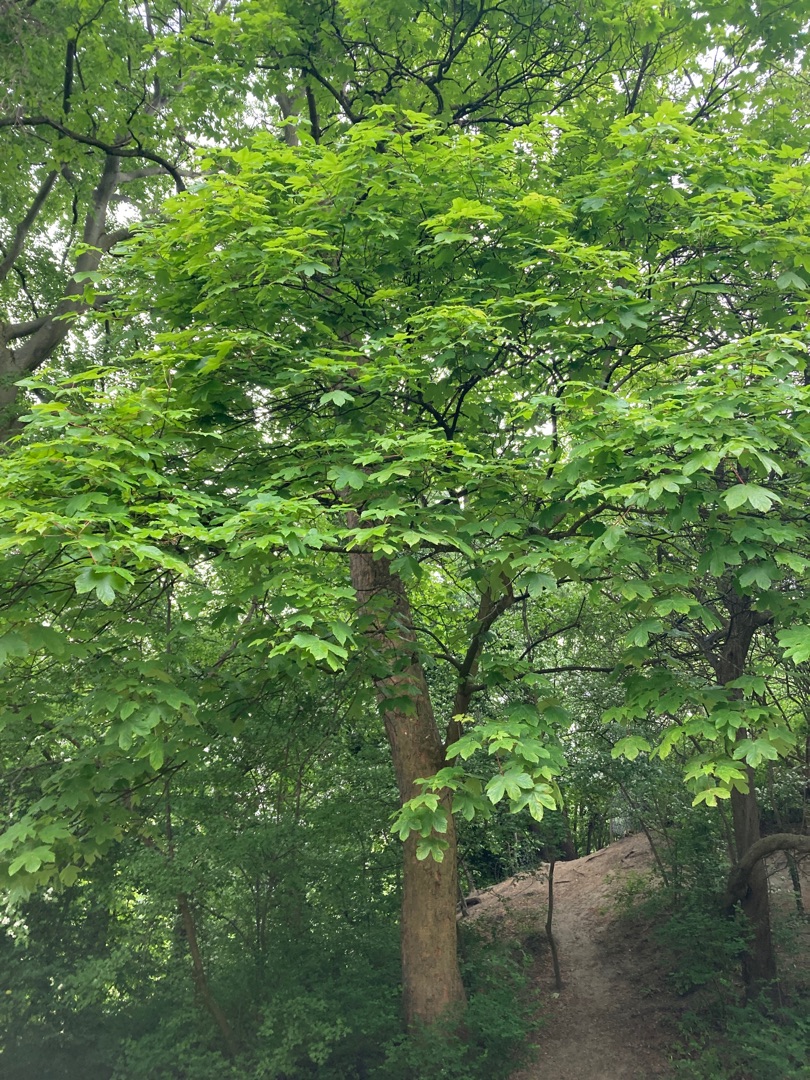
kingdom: Plantae
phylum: Tracheophyta
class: Magnoliopsida
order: Sapindales
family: Sapindaceae
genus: Acer
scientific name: Acer pseudoplatanus
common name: Ahorn
